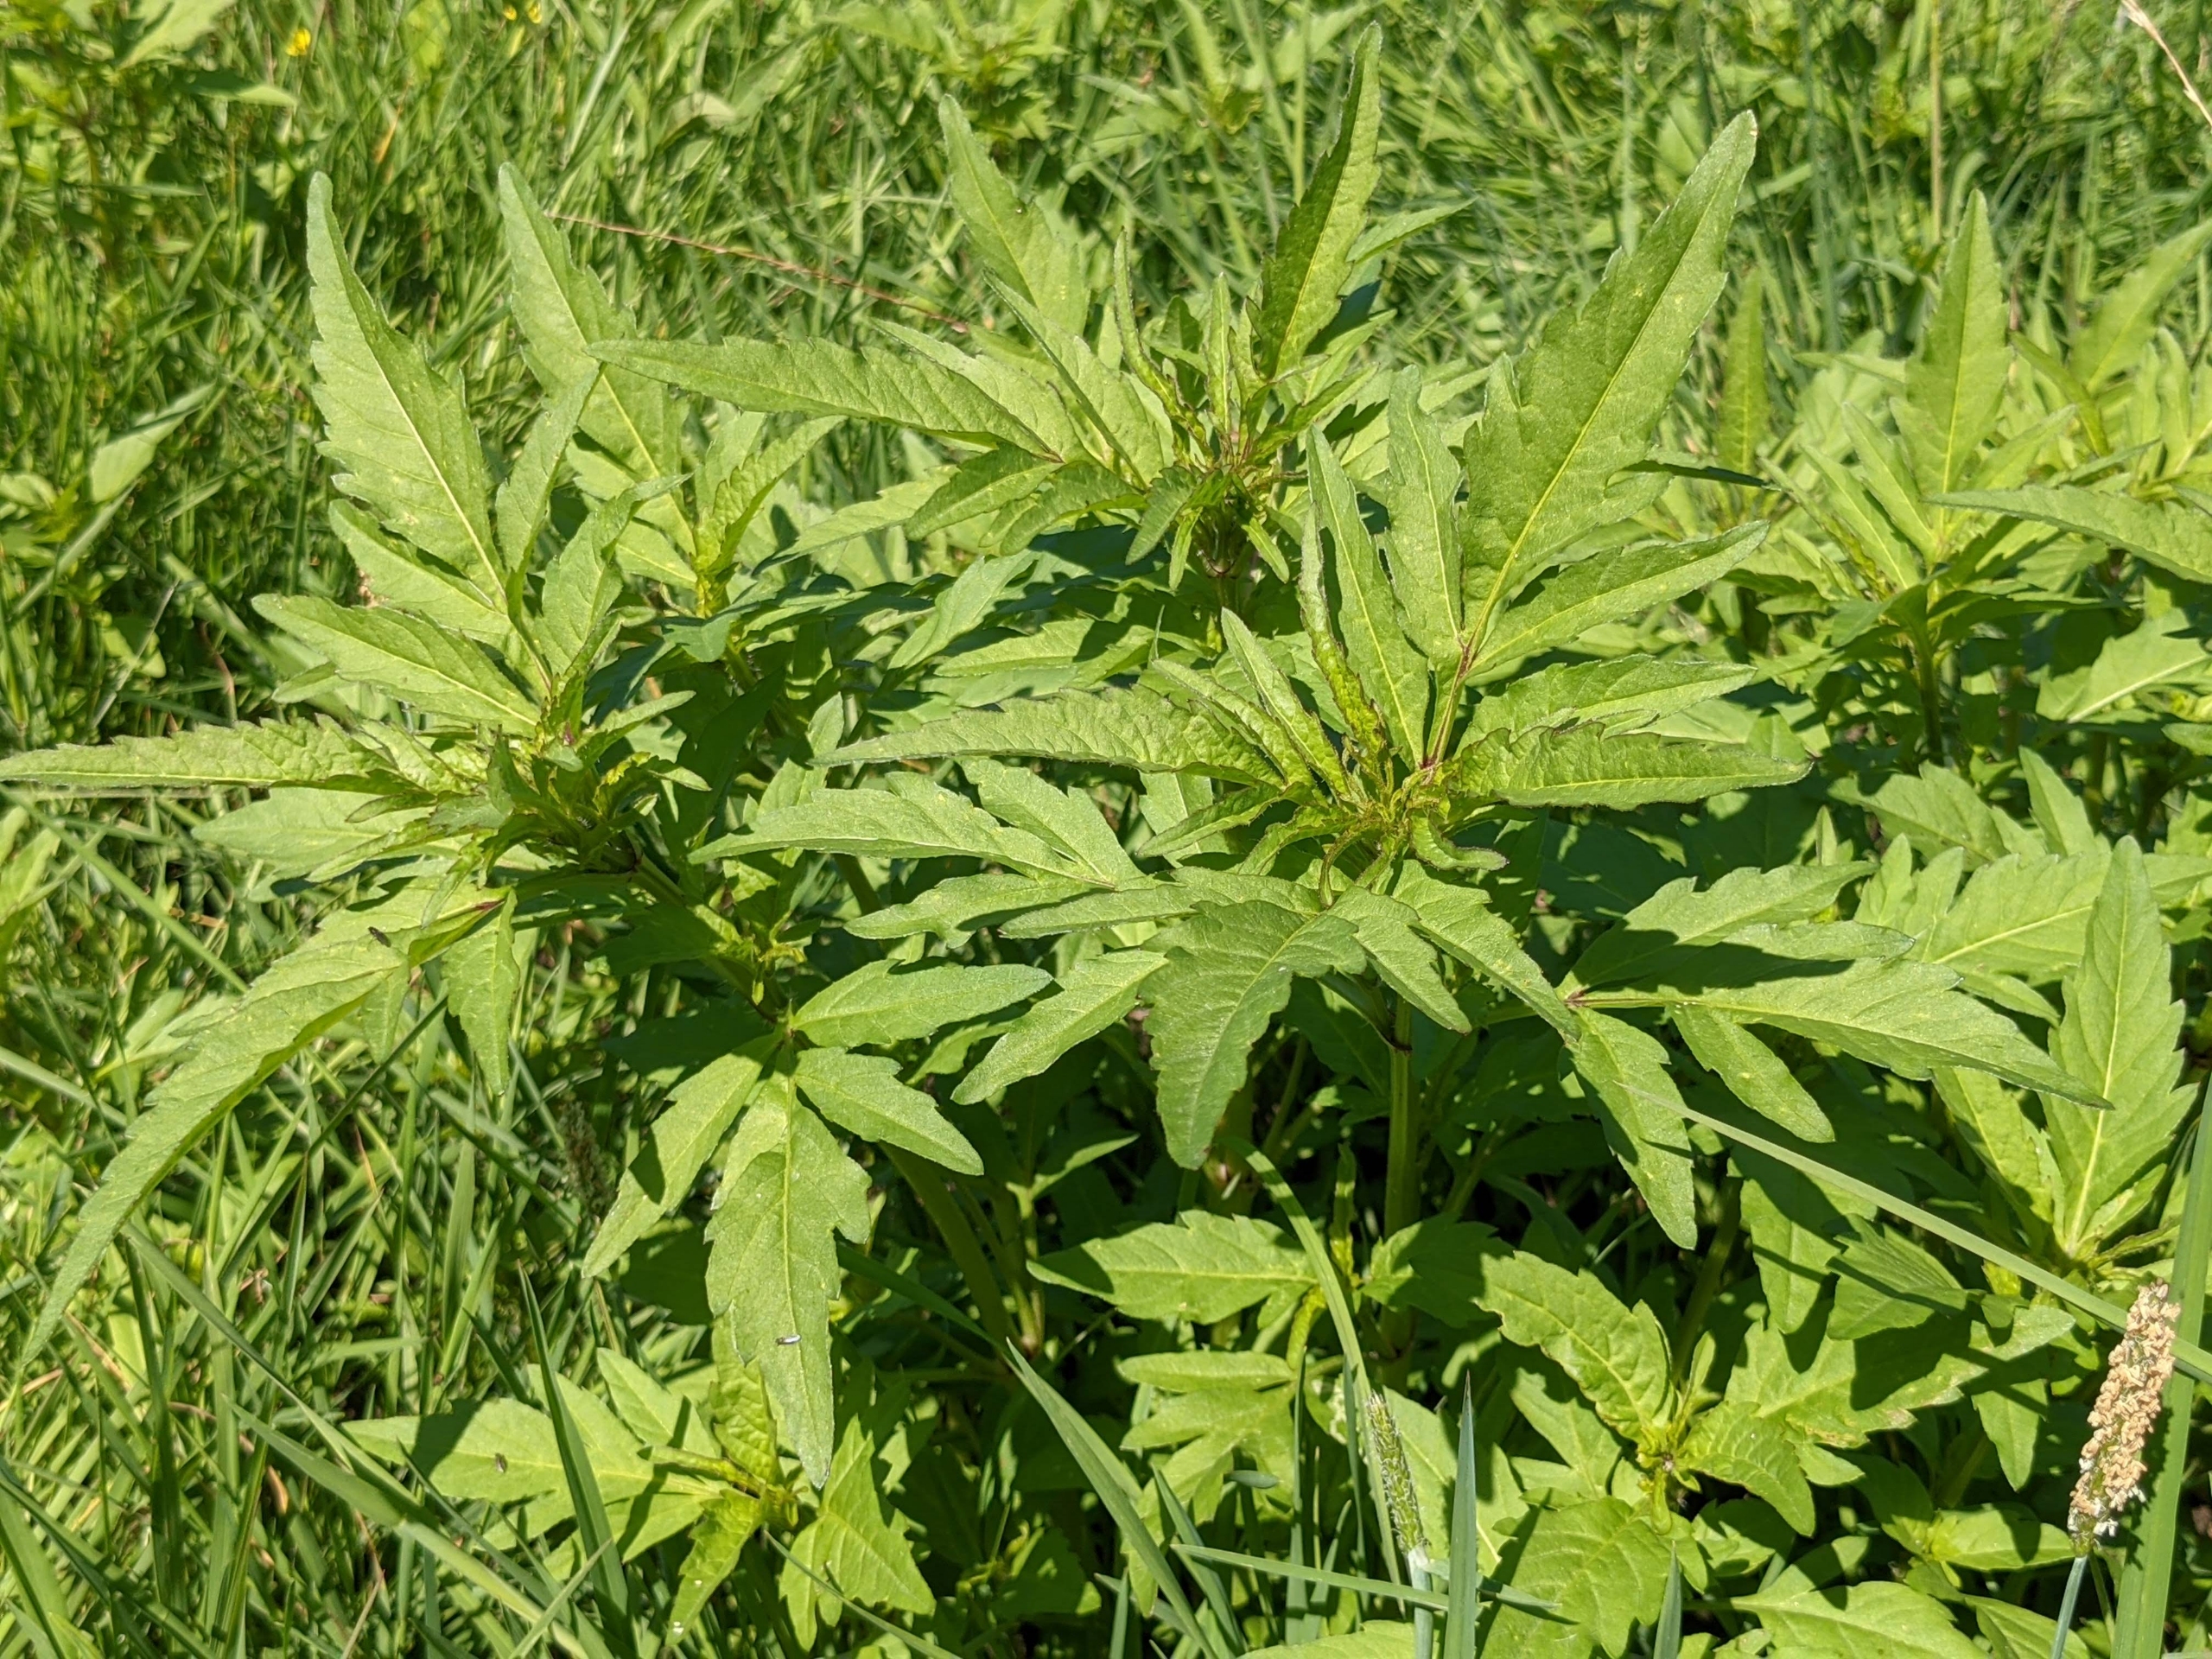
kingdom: Plantae
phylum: Tracheophyta
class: Magnoliopsida
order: Asterales
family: Asteraceae
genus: Bidens
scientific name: Bidens tripartita
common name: Fliget brøndsel
